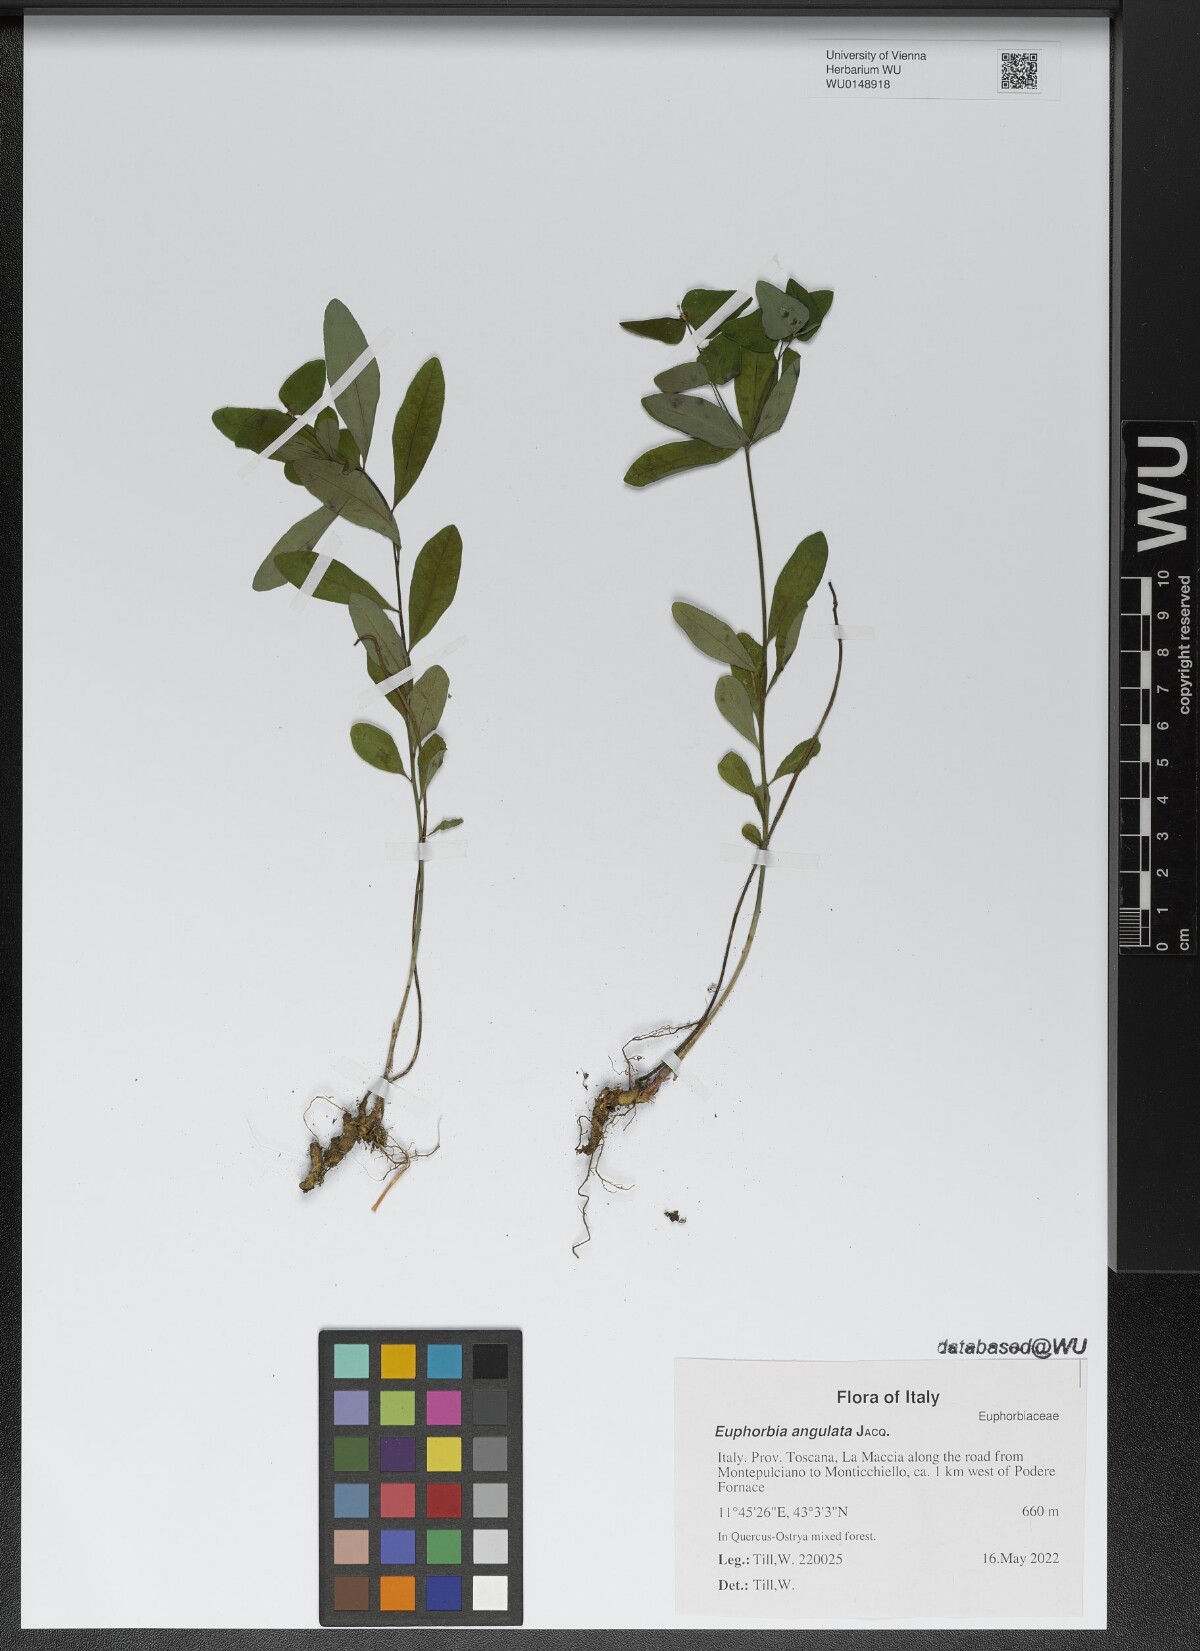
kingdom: Plantae
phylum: Tracheophyta
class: Magnoliopsida
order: Malpighiales
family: Euphorbiaceae
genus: Euphorbia
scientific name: Euphorbia angulata
